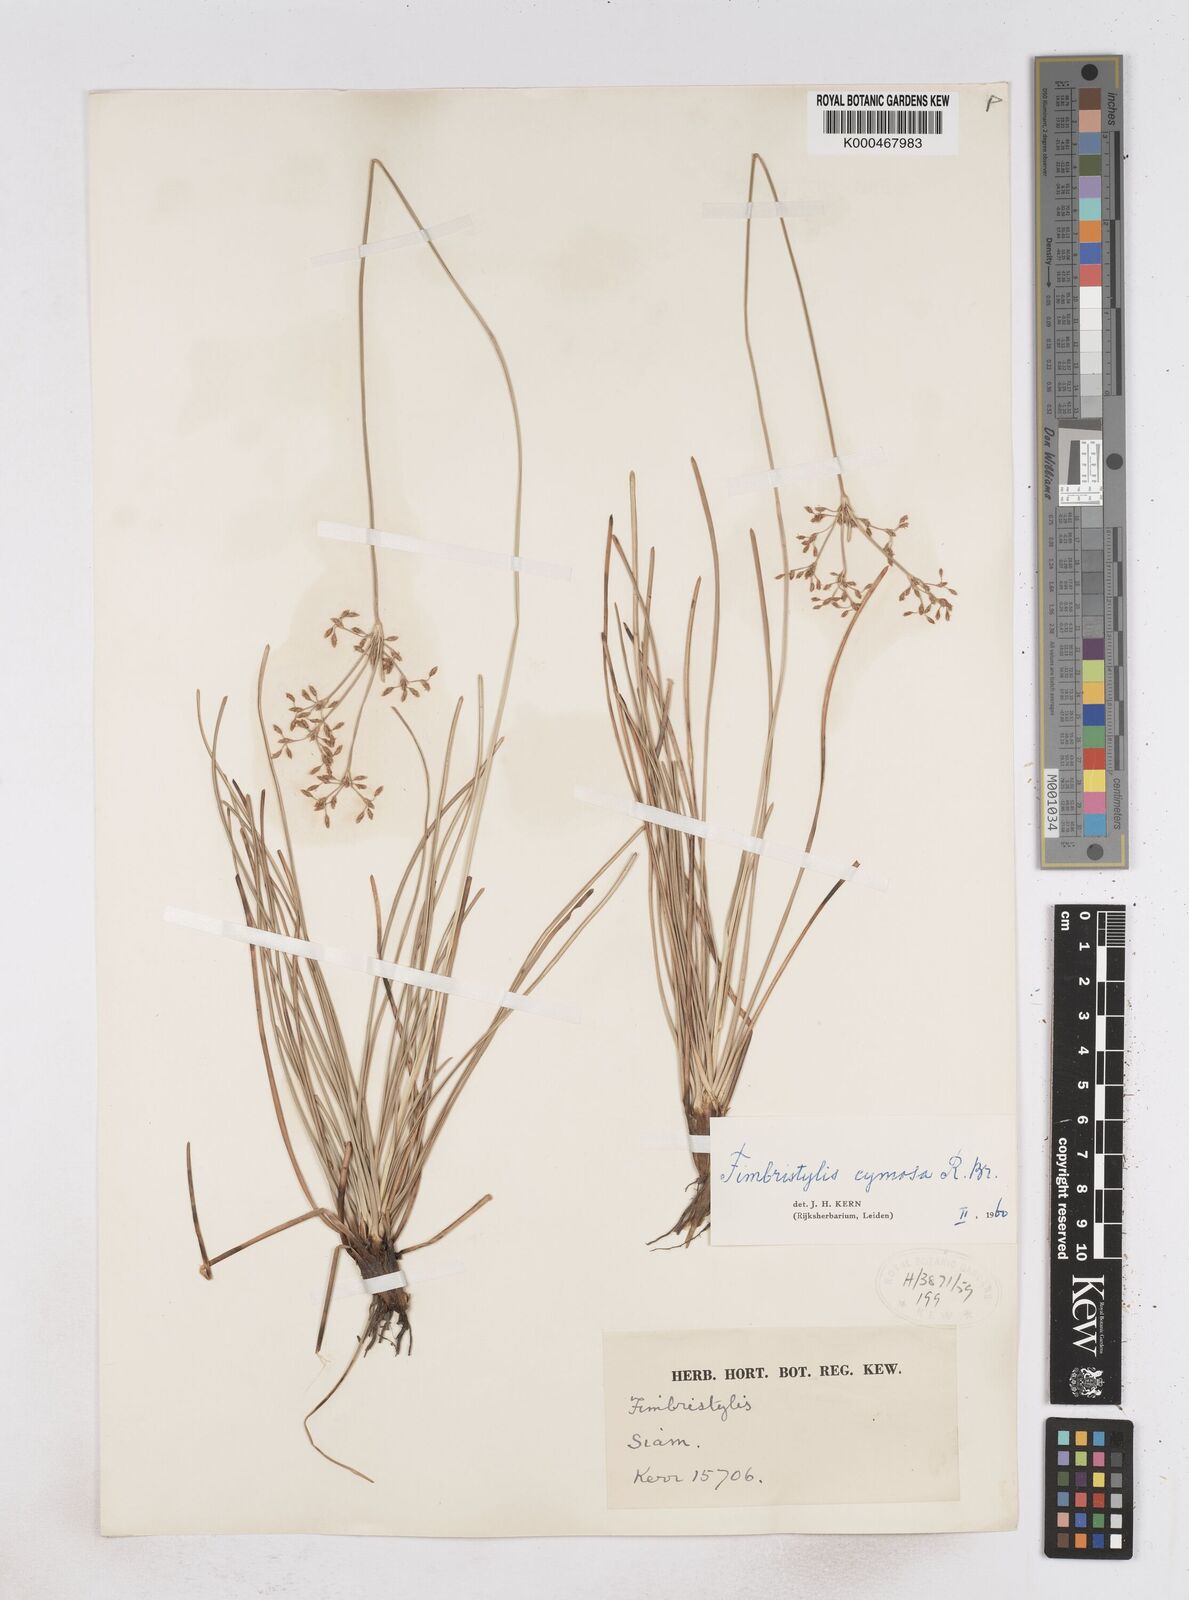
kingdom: Plantae
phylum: Tracheophyta
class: Liliopsida
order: Poales
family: Cyperaceae
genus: Fimbristylis
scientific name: Fimbristylis cymosa
